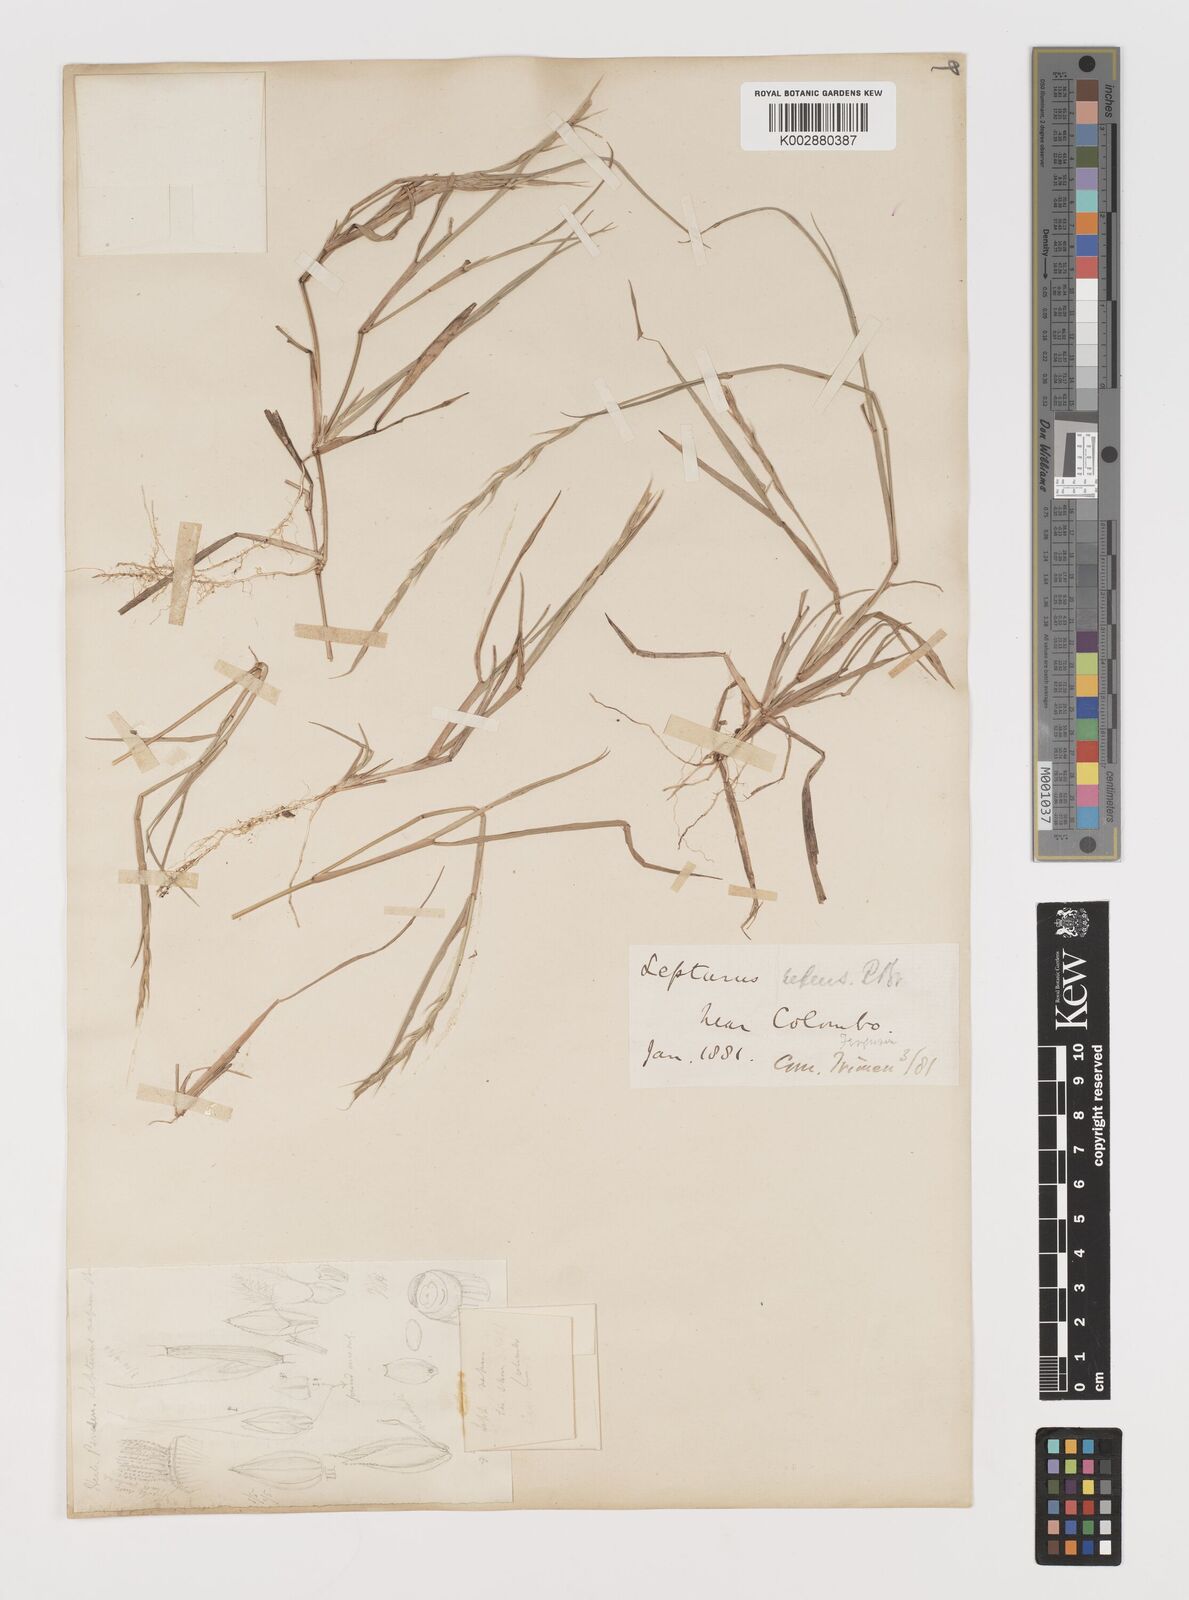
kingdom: Plantae
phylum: Tracheophyta
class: Liliopsida
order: Poales
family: Poaceae
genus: Lepturus
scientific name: Lepturus repens
